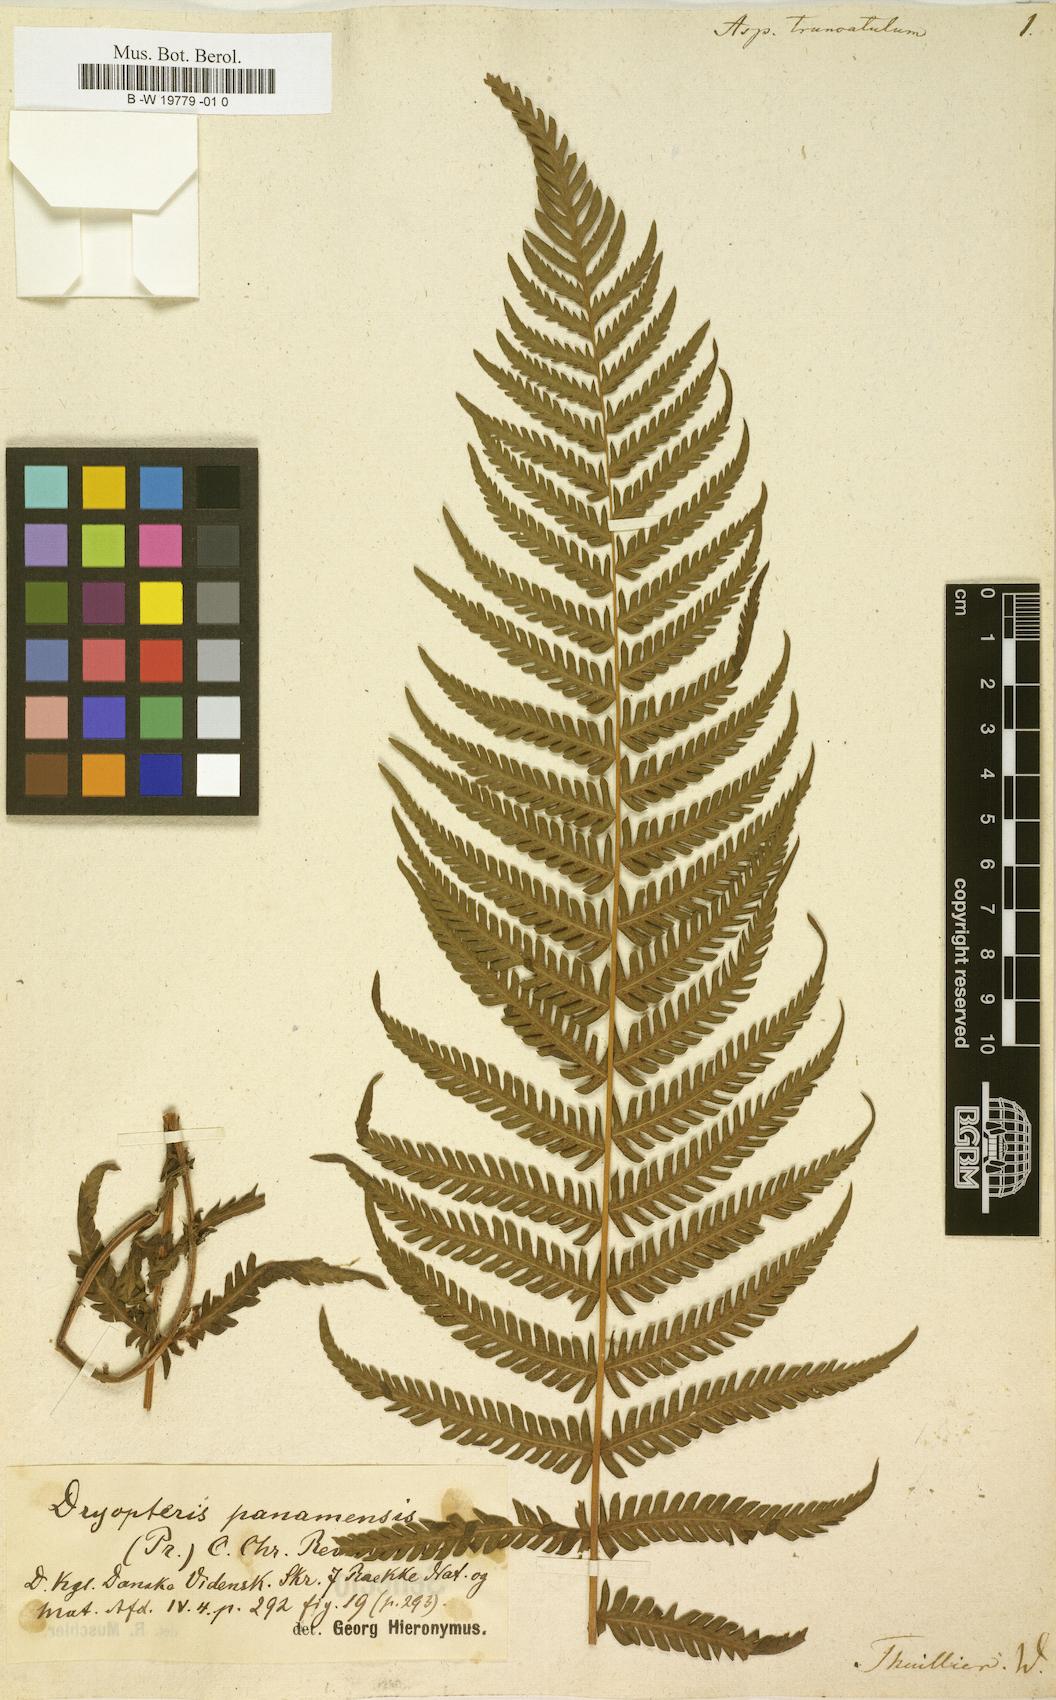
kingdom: Plantae
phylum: Tracheophyta
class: Polypodiopsida
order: Polypodiales
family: Didymochlaenaceae
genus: Didymochlaena
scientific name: Didymochlaena truncatula
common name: Mahogany fern
